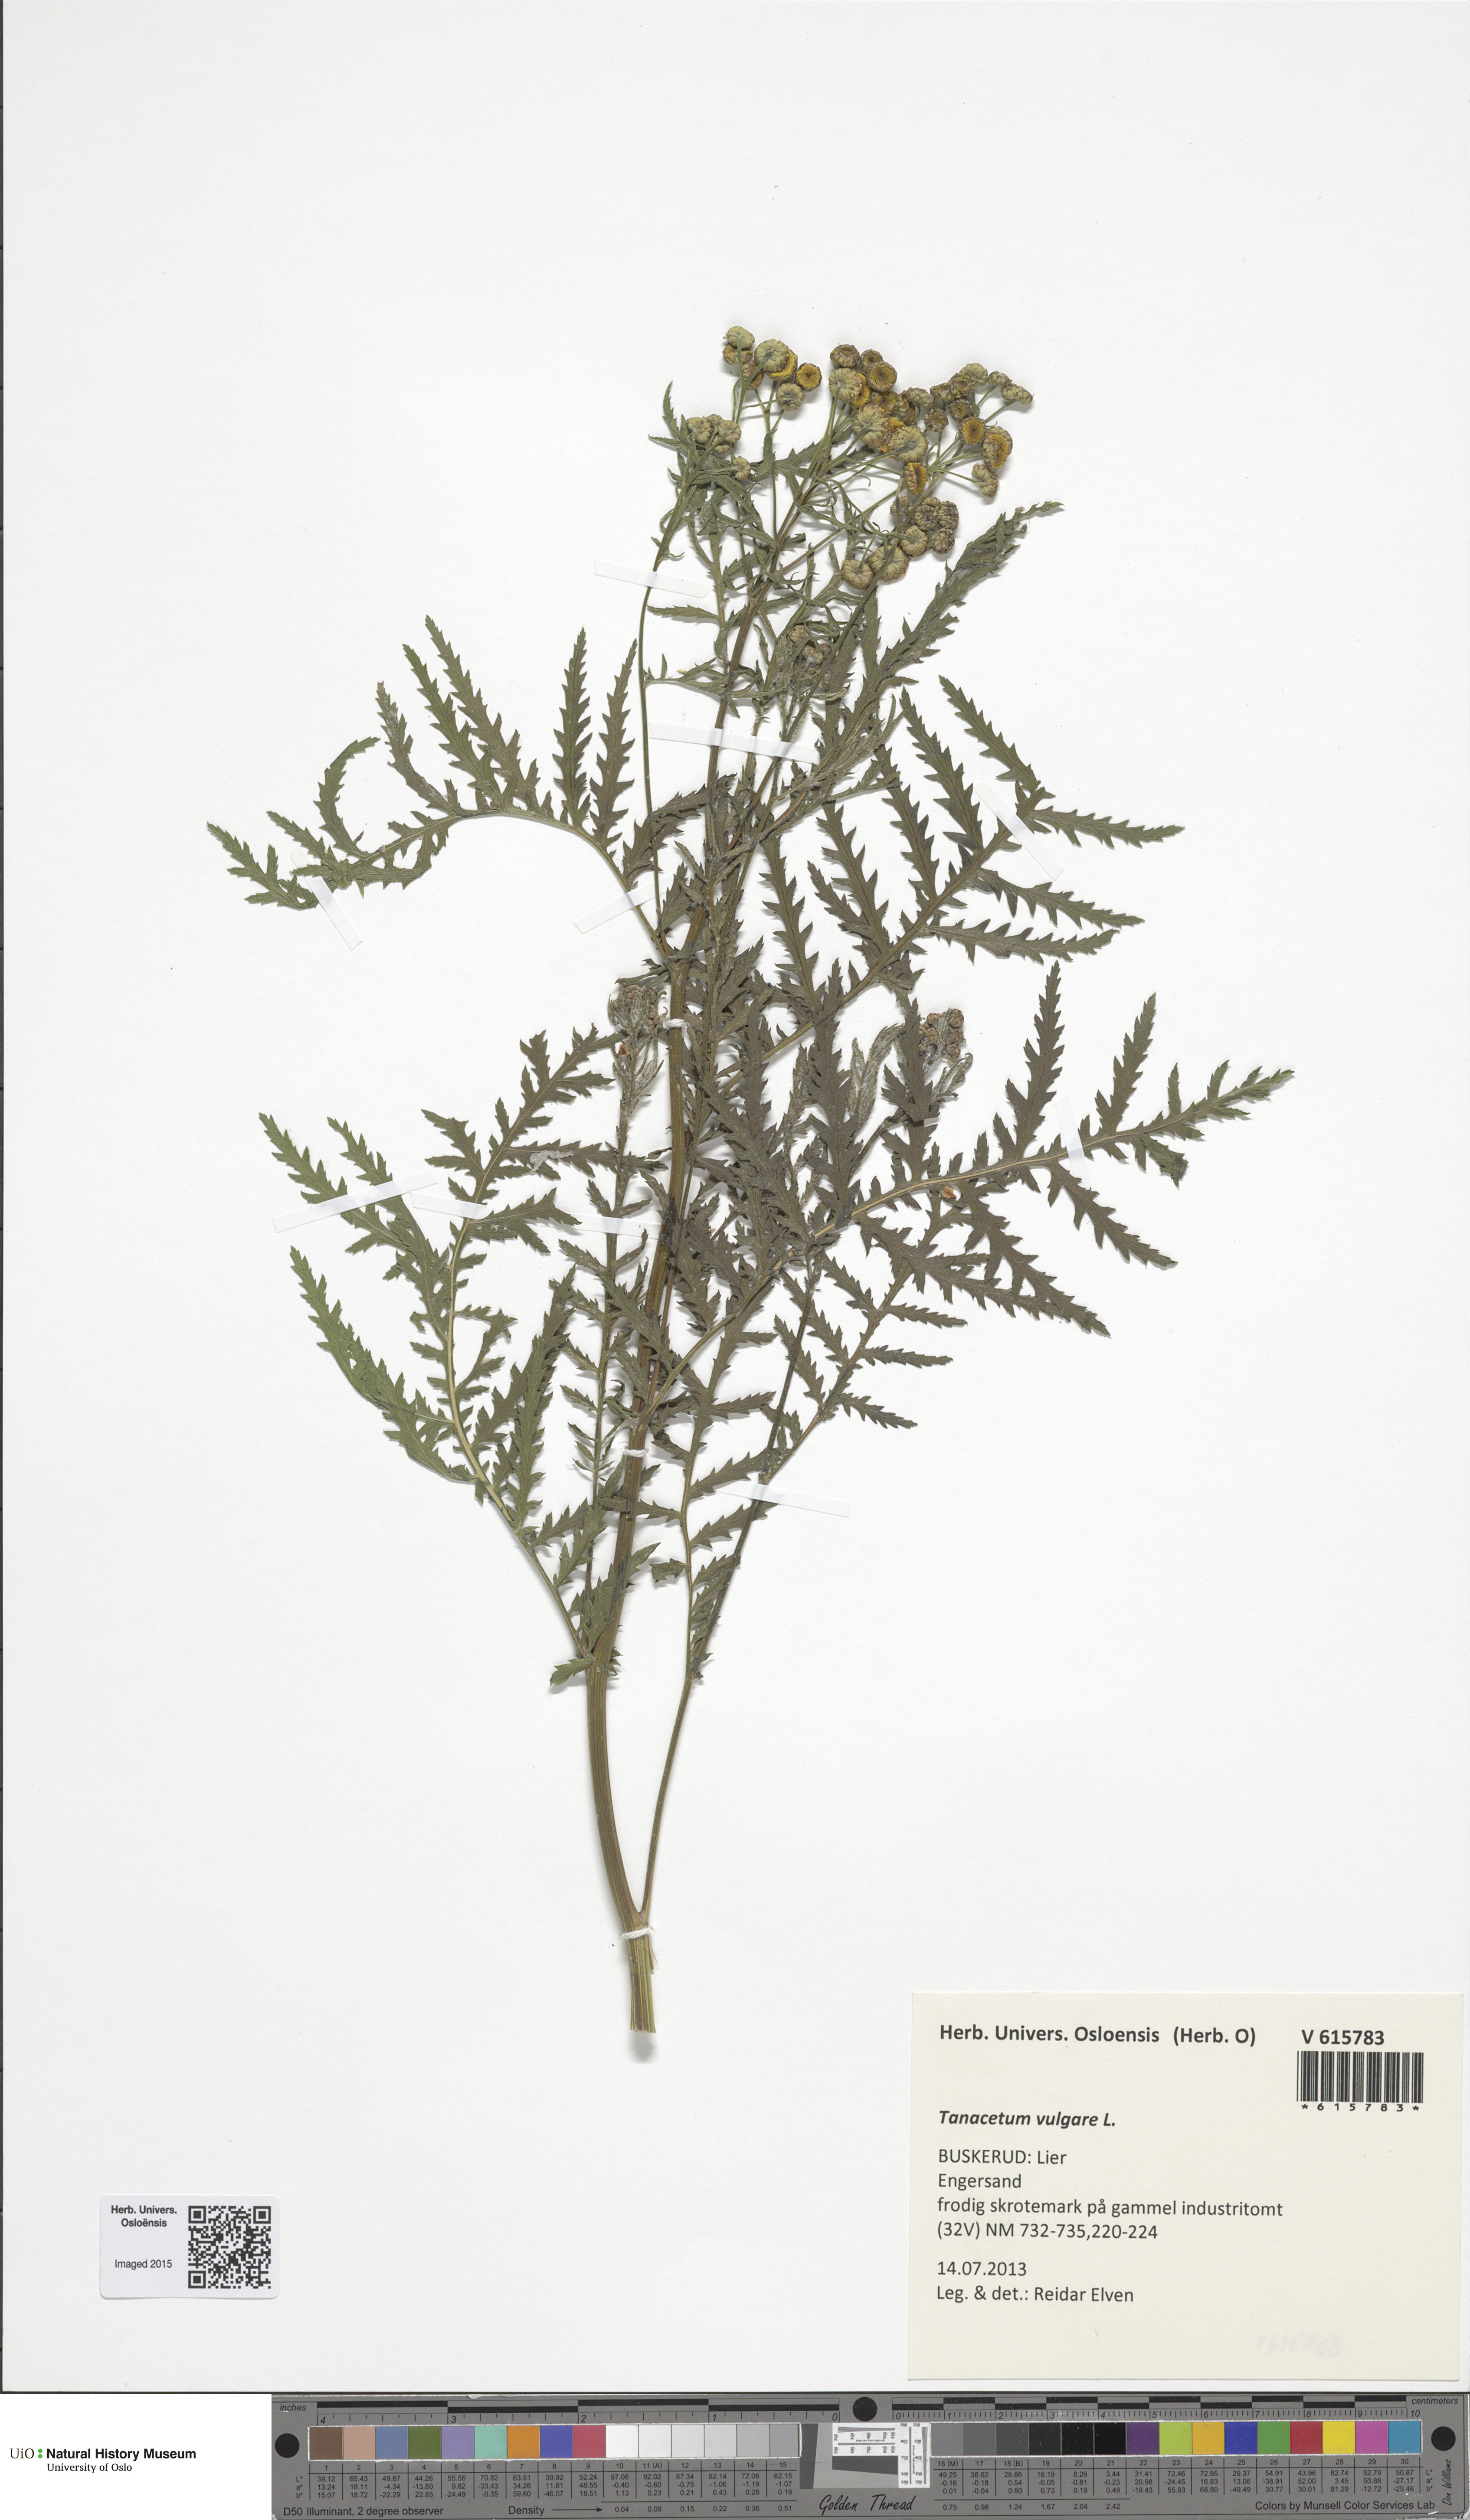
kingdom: Plantae
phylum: Tracheophyta
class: Magnoliopsida
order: Asterales
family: Asteraceae
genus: Tanacetum
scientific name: Tanacetum vulgare
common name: Common tansy
